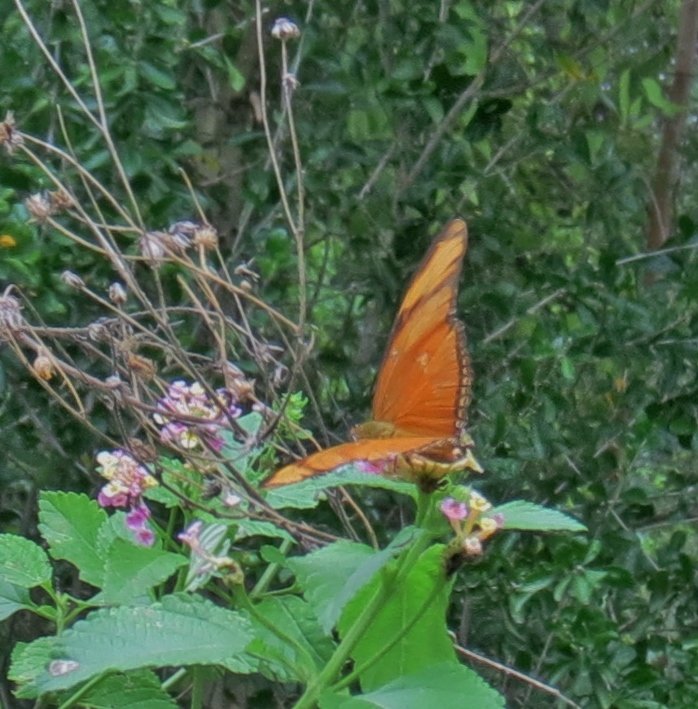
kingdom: Animalia
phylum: Arthropoda
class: Insecta
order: Lepidoptera
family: Nymphalidae
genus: Dryas
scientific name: Dryas iulia
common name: Julia
